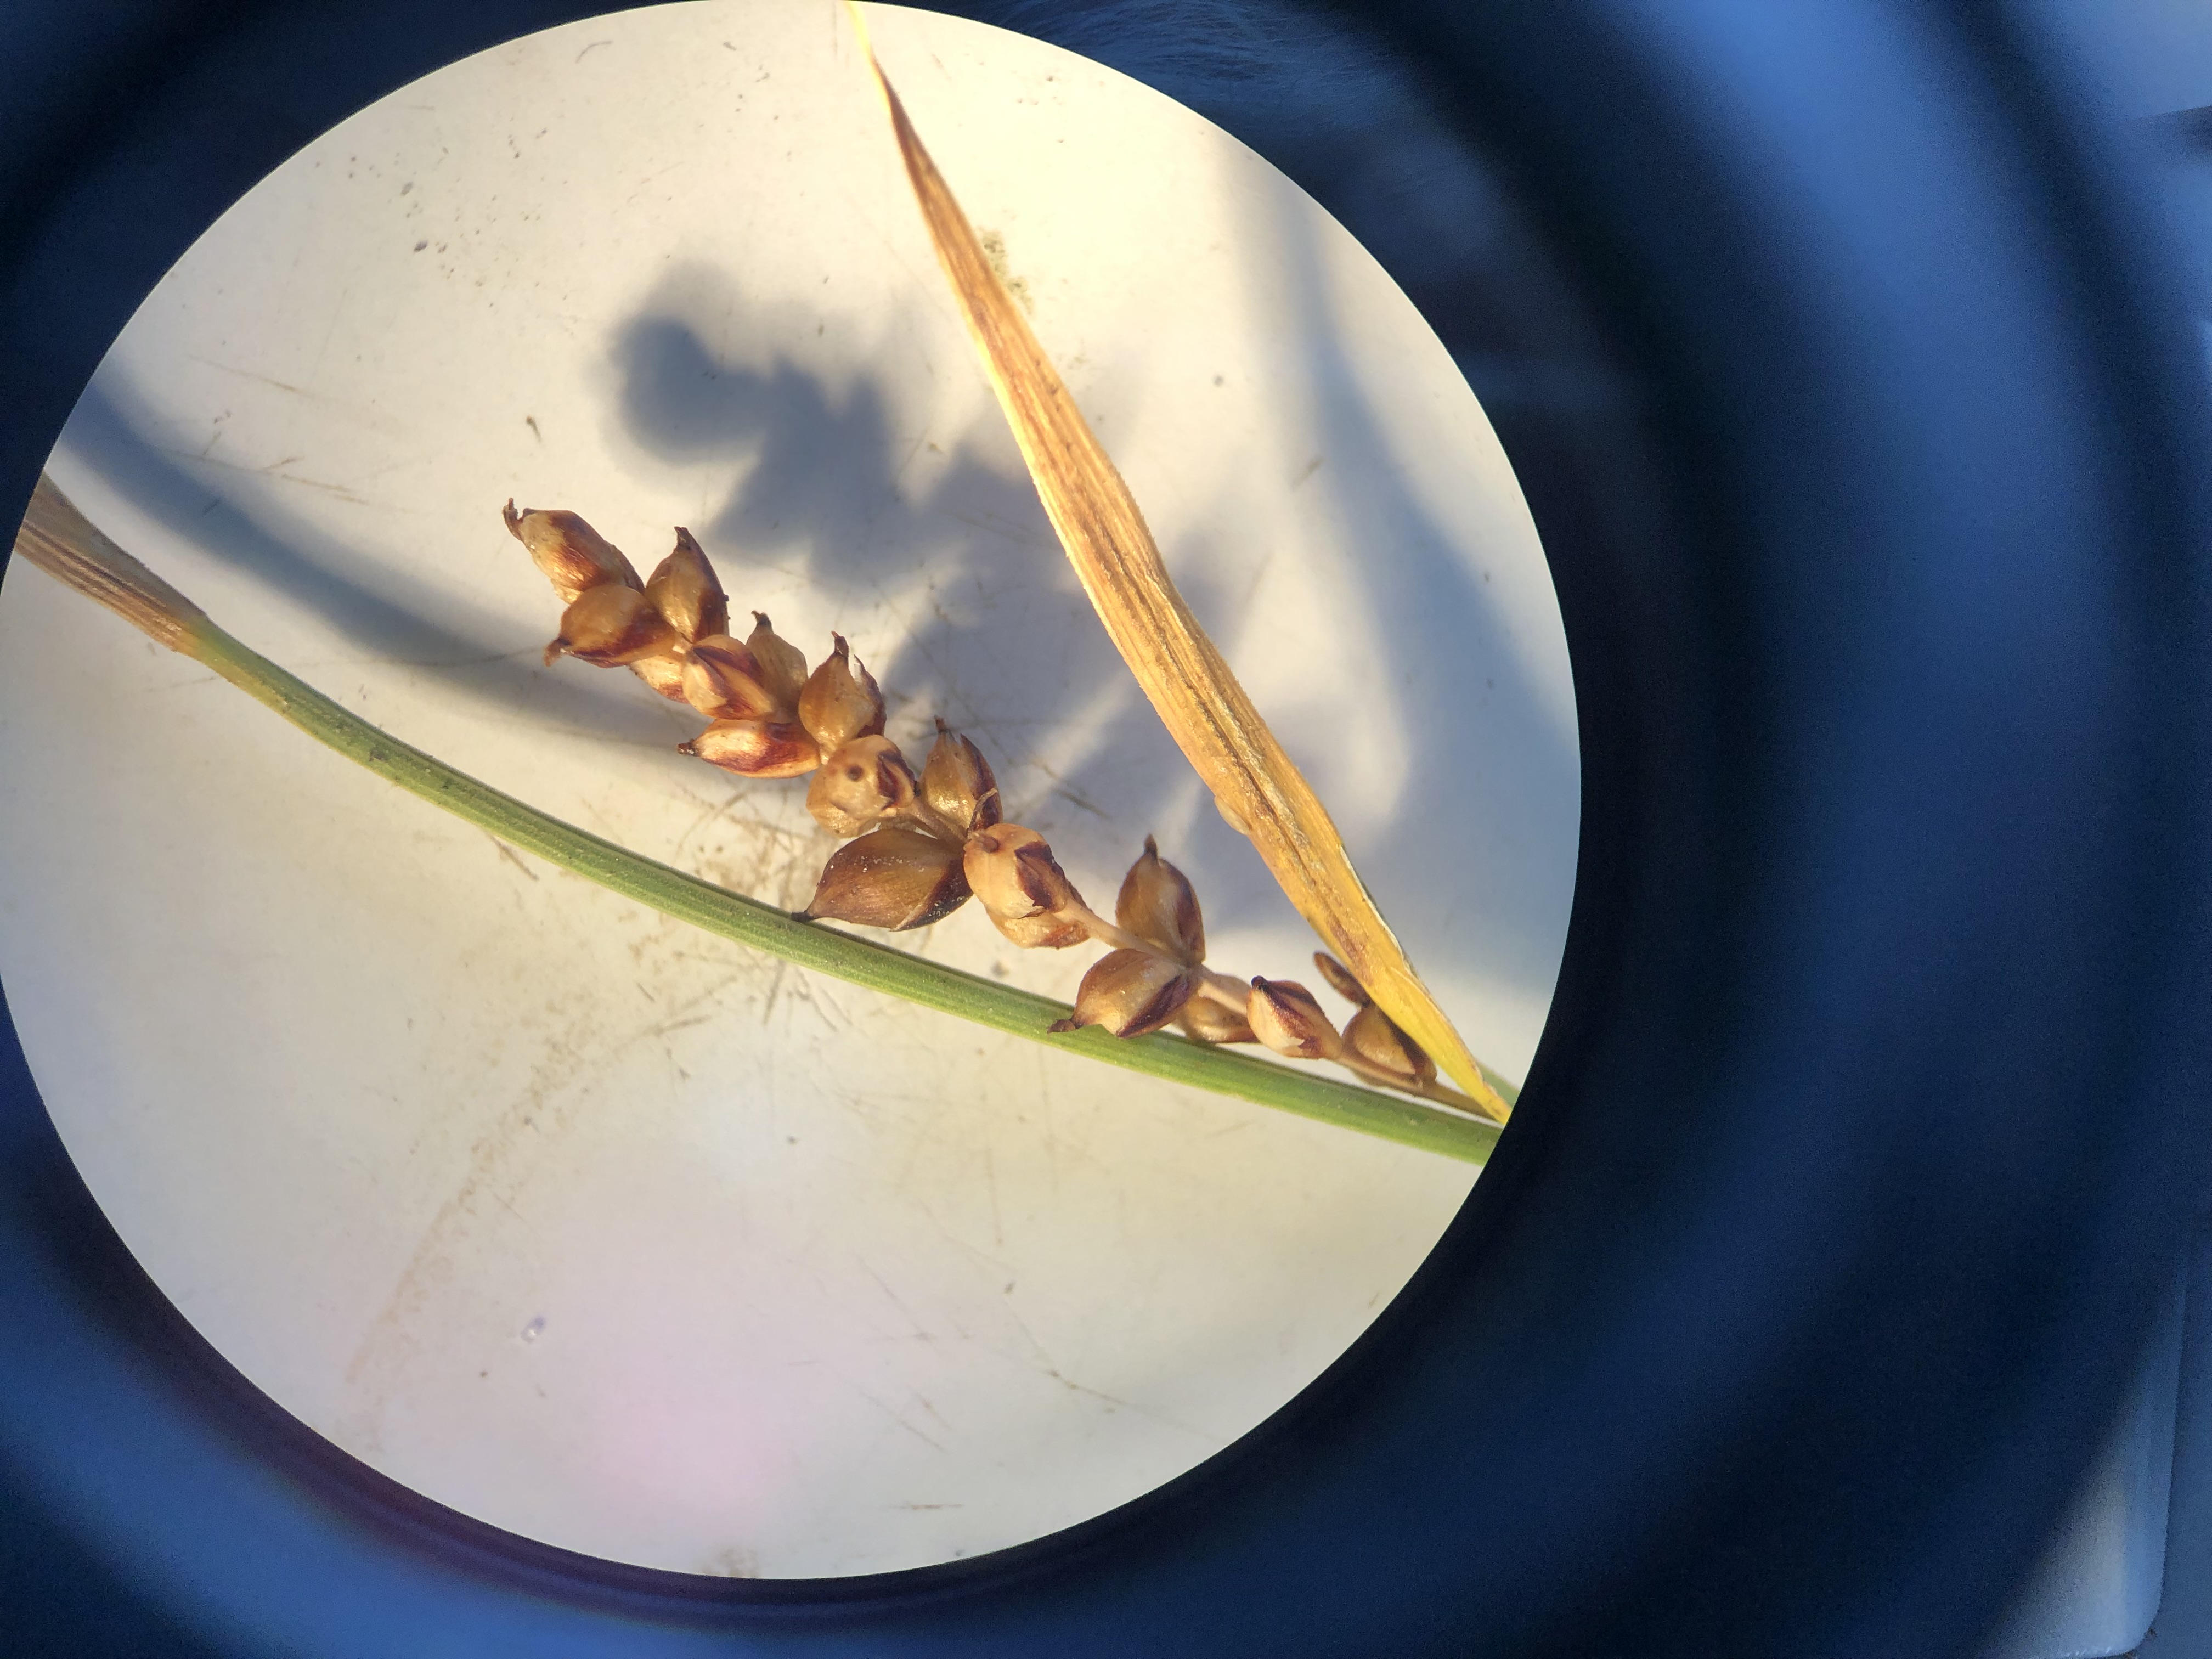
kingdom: Plantae
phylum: Tracheophyta
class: Liliopsida
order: Poales
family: Cyperaceae
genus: Carex
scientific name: Carex panicea
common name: Hirse-star
